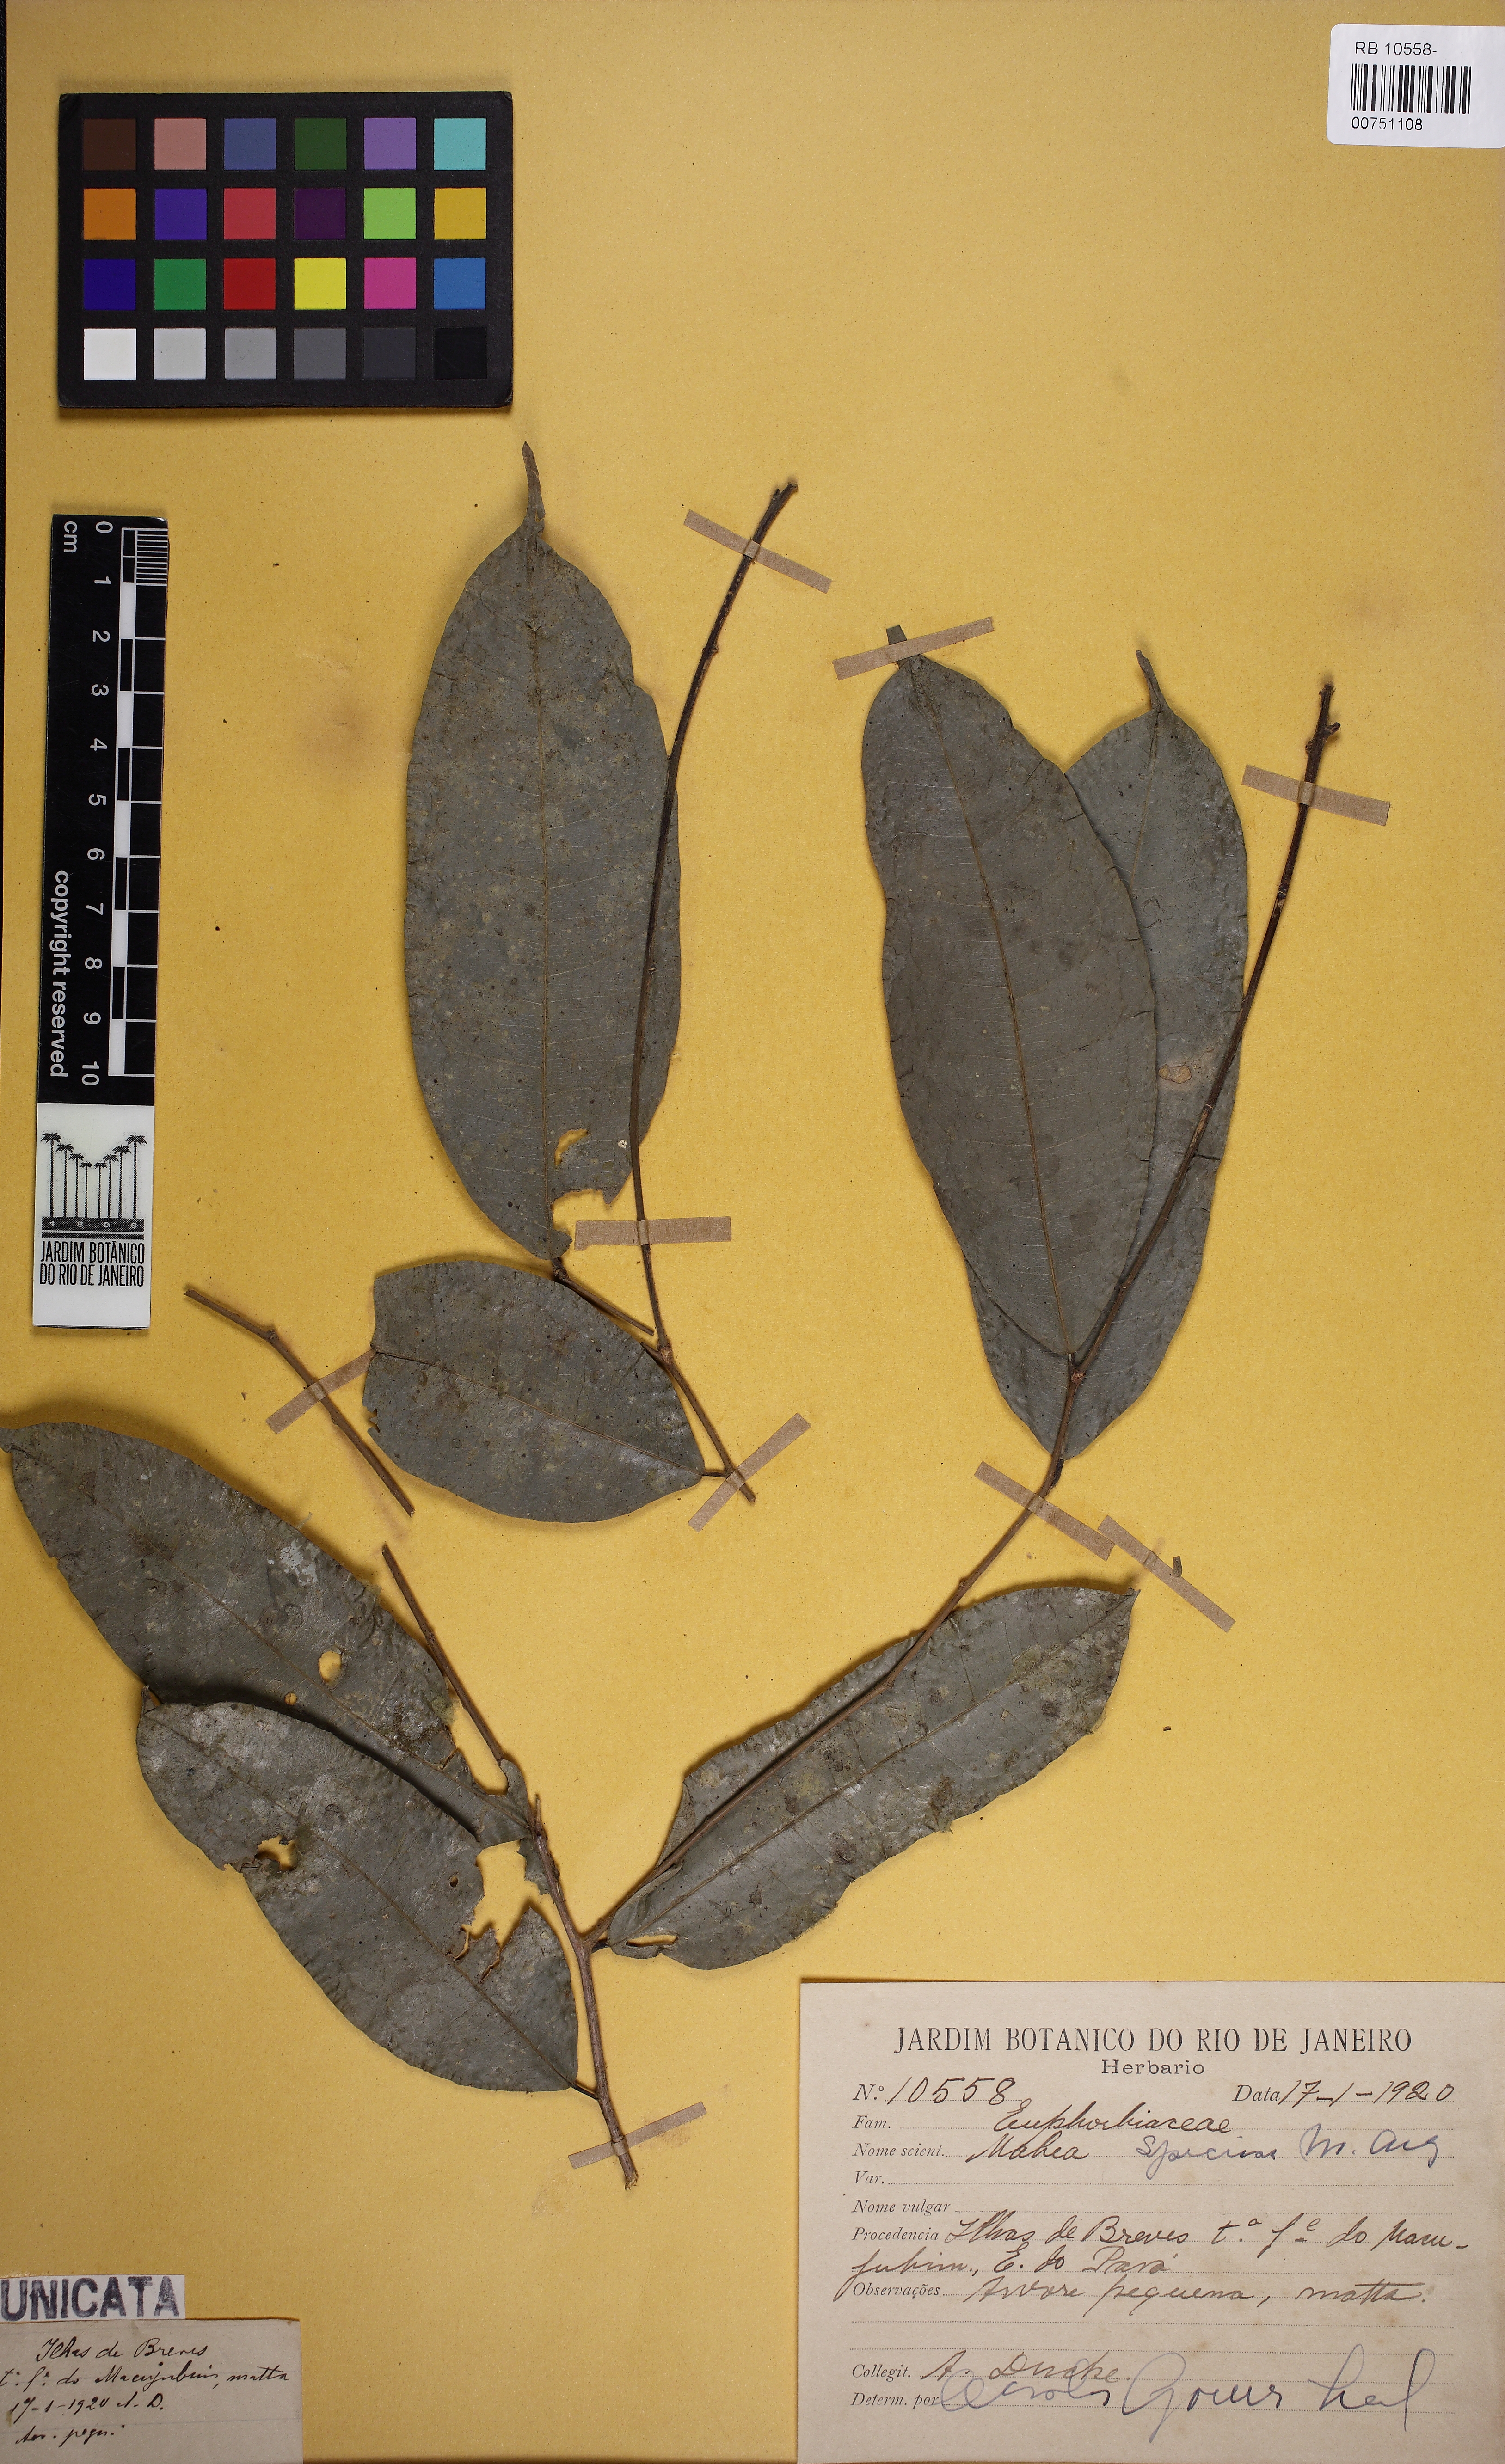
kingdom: Plantae
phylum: Tracheophyta
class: Magnoliopsida
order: Malpighiales
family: Euphorbiaceae
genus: Mabea
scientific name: Mabea speciosa
